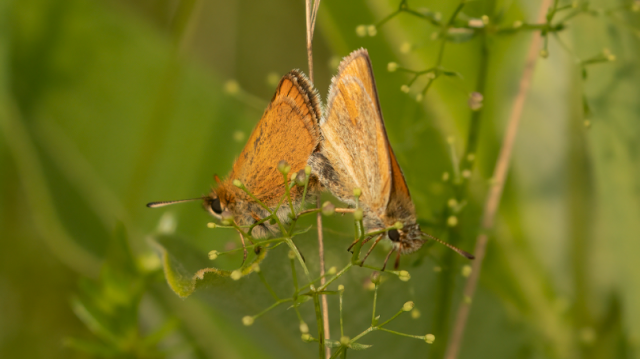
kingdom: Animalia
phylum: Arthropoda
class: Insecta
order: Lepidoptera
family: Hesperiidae
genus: Thymelicus
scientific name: Thymelicus lineola
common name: European Skipper
